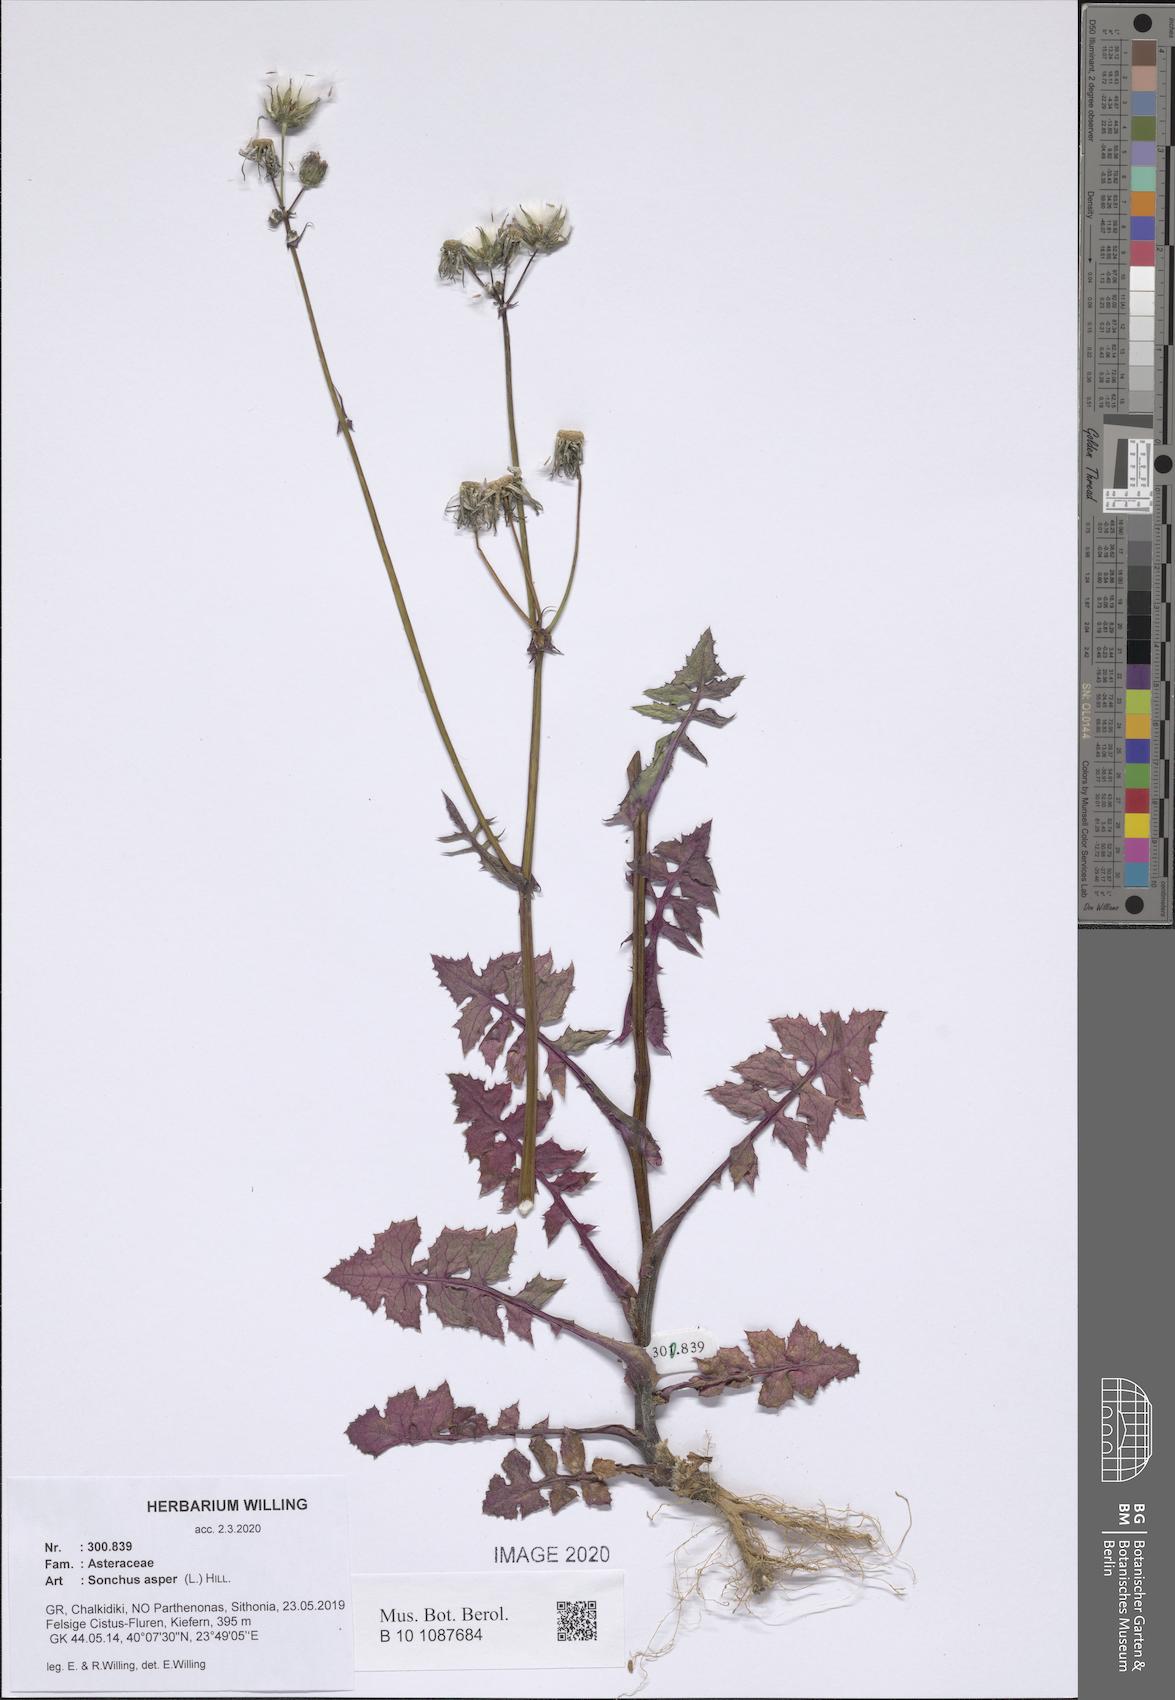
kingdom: Plantae
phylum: Tracheophyta
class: Magnoliopsida
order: Asterales
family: Asteraceae
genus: Sonchus
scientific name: Sonchus asper
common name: Prickly sow-thistle
